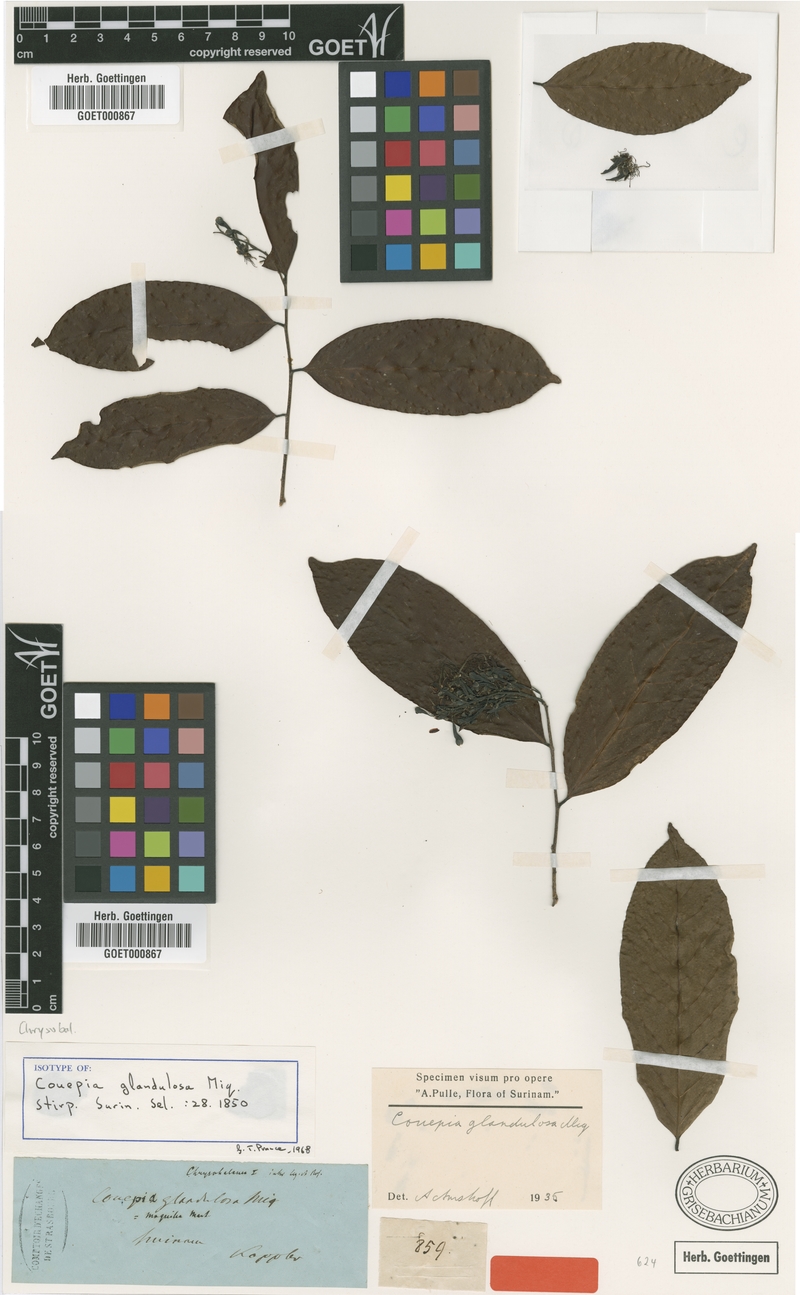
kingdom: Plantae
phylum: Tracheophyta
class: Magnoliopsida
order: Malpighiales
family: Chrysobalanaceae
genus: Couepia
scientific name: Couepia guianensis
